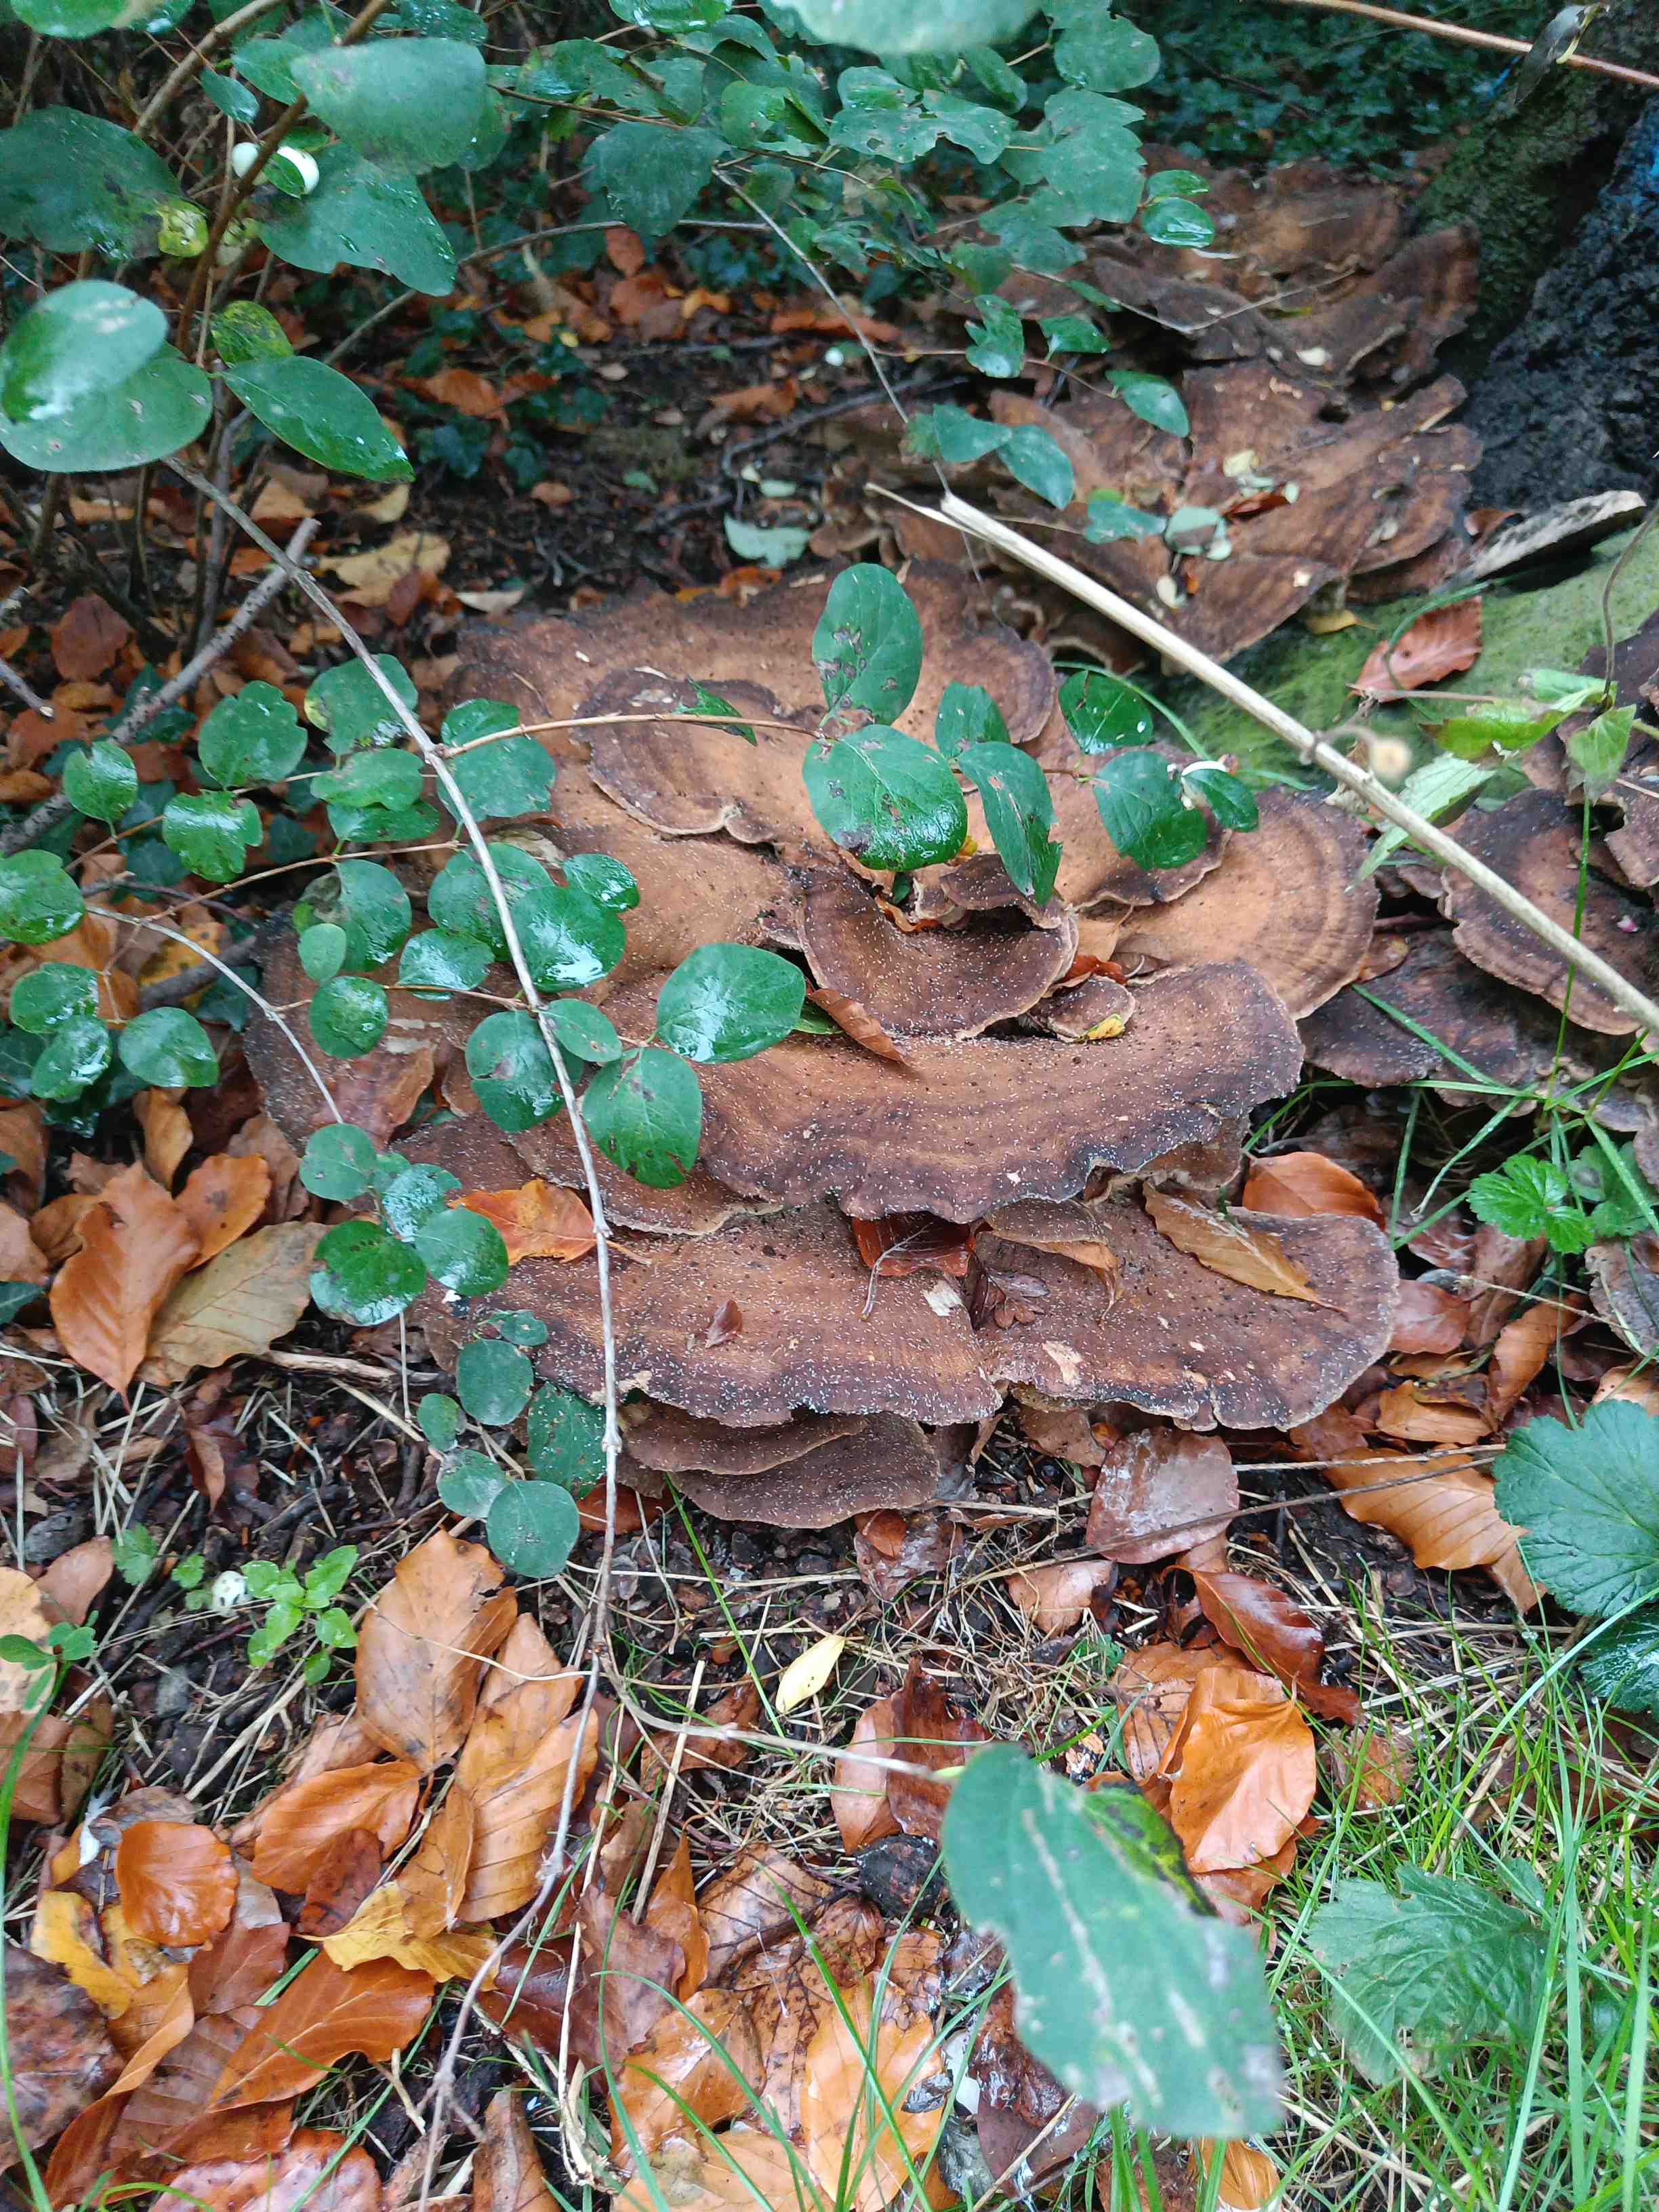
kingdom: Fungi
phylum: Basidiomycota
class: Agaricomycetes
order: Polyporales
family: Meripilaceae
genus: Meripilus
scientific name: Meripilus giganteus
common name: kæmpeporesvamp
